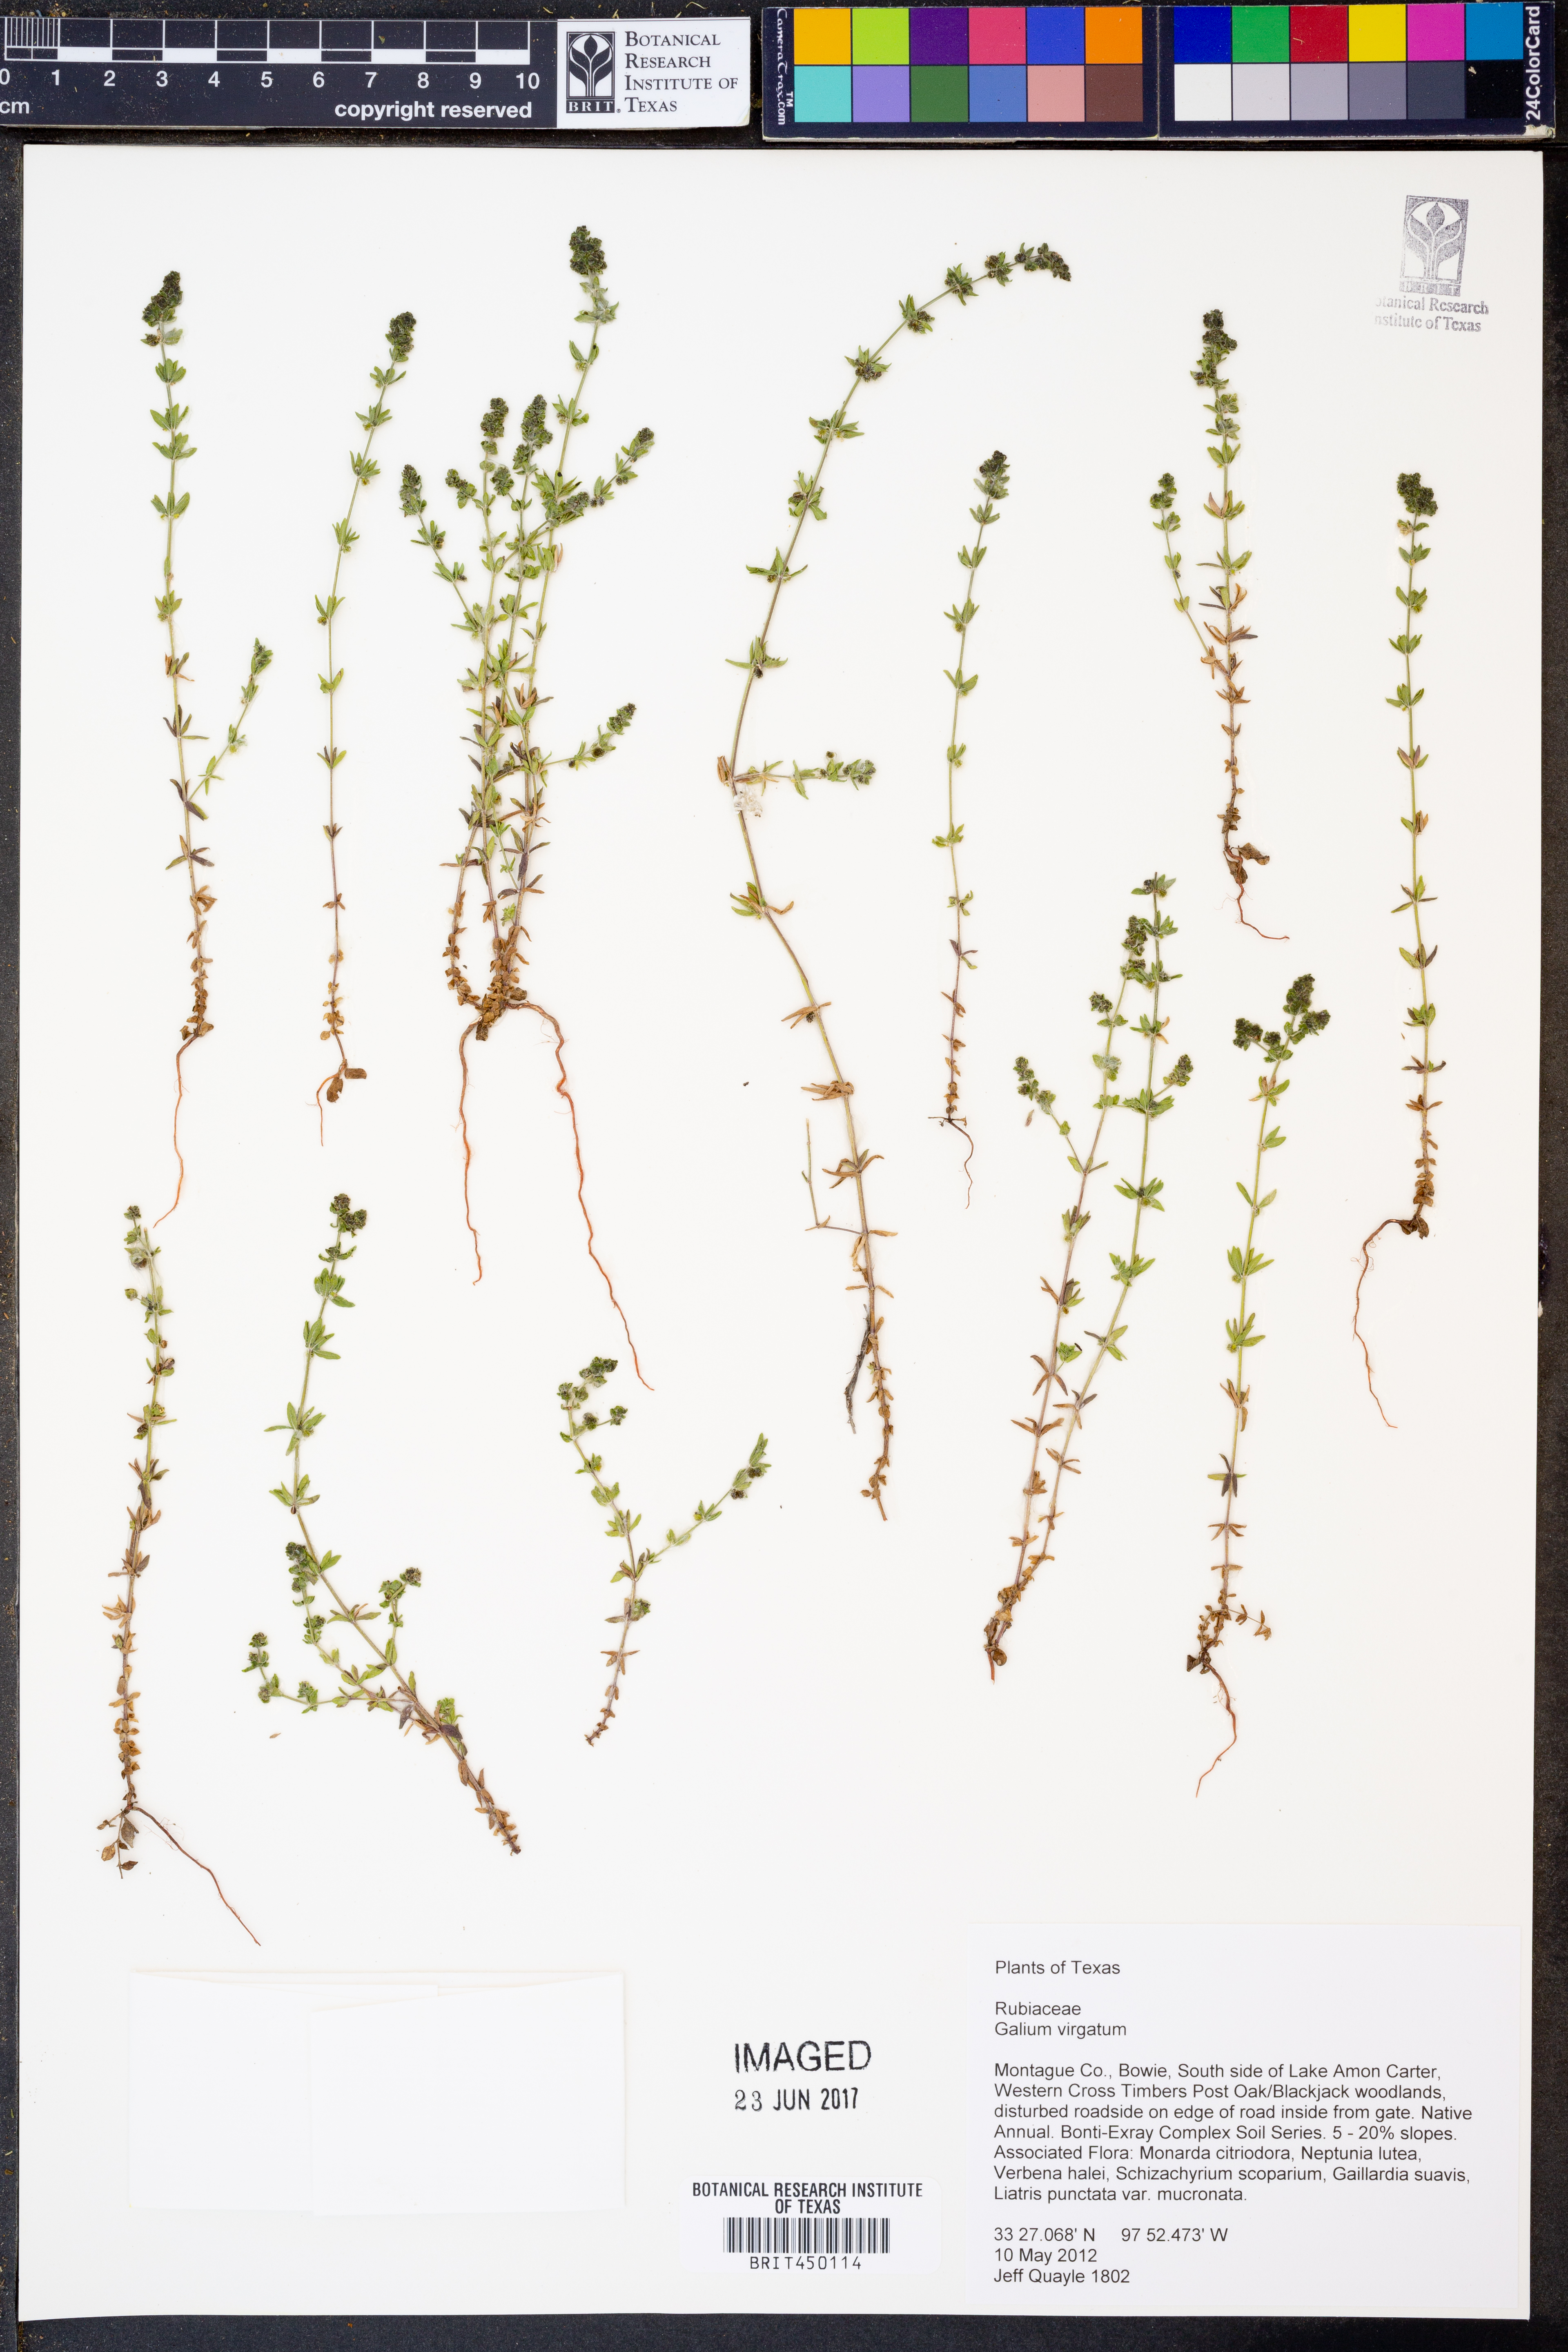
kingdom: Plantae
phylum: Tracheophyta
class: Magnoliopsida
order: Gentianales
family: Rubiaceae
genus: Galium
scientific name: Galium virgatum
